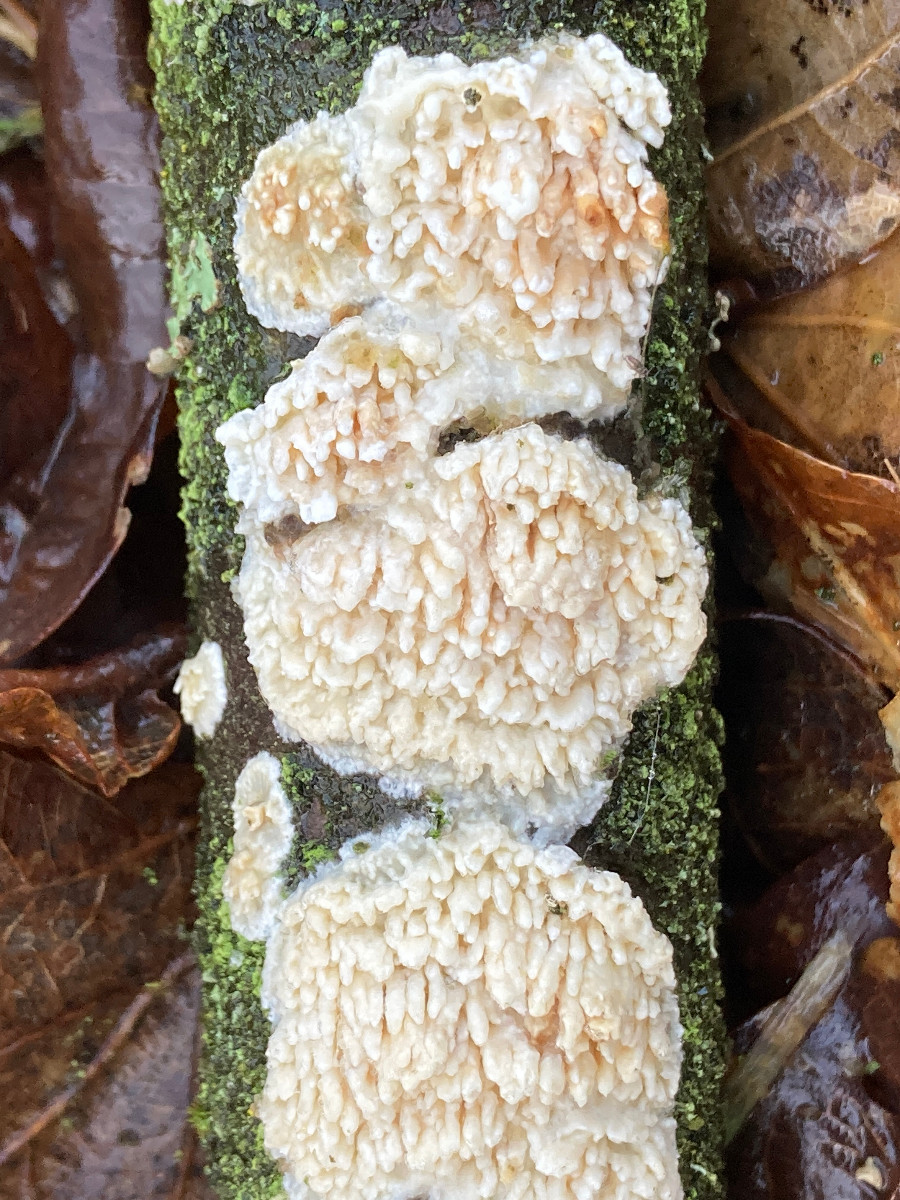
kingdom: Fungi
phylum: Basidiomycota
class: Agaricomycetes
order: Hymenochaetales
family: Schizoporaceae
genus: Xylodon
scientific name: Xylodon radula
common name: grovtandet kalkskind
